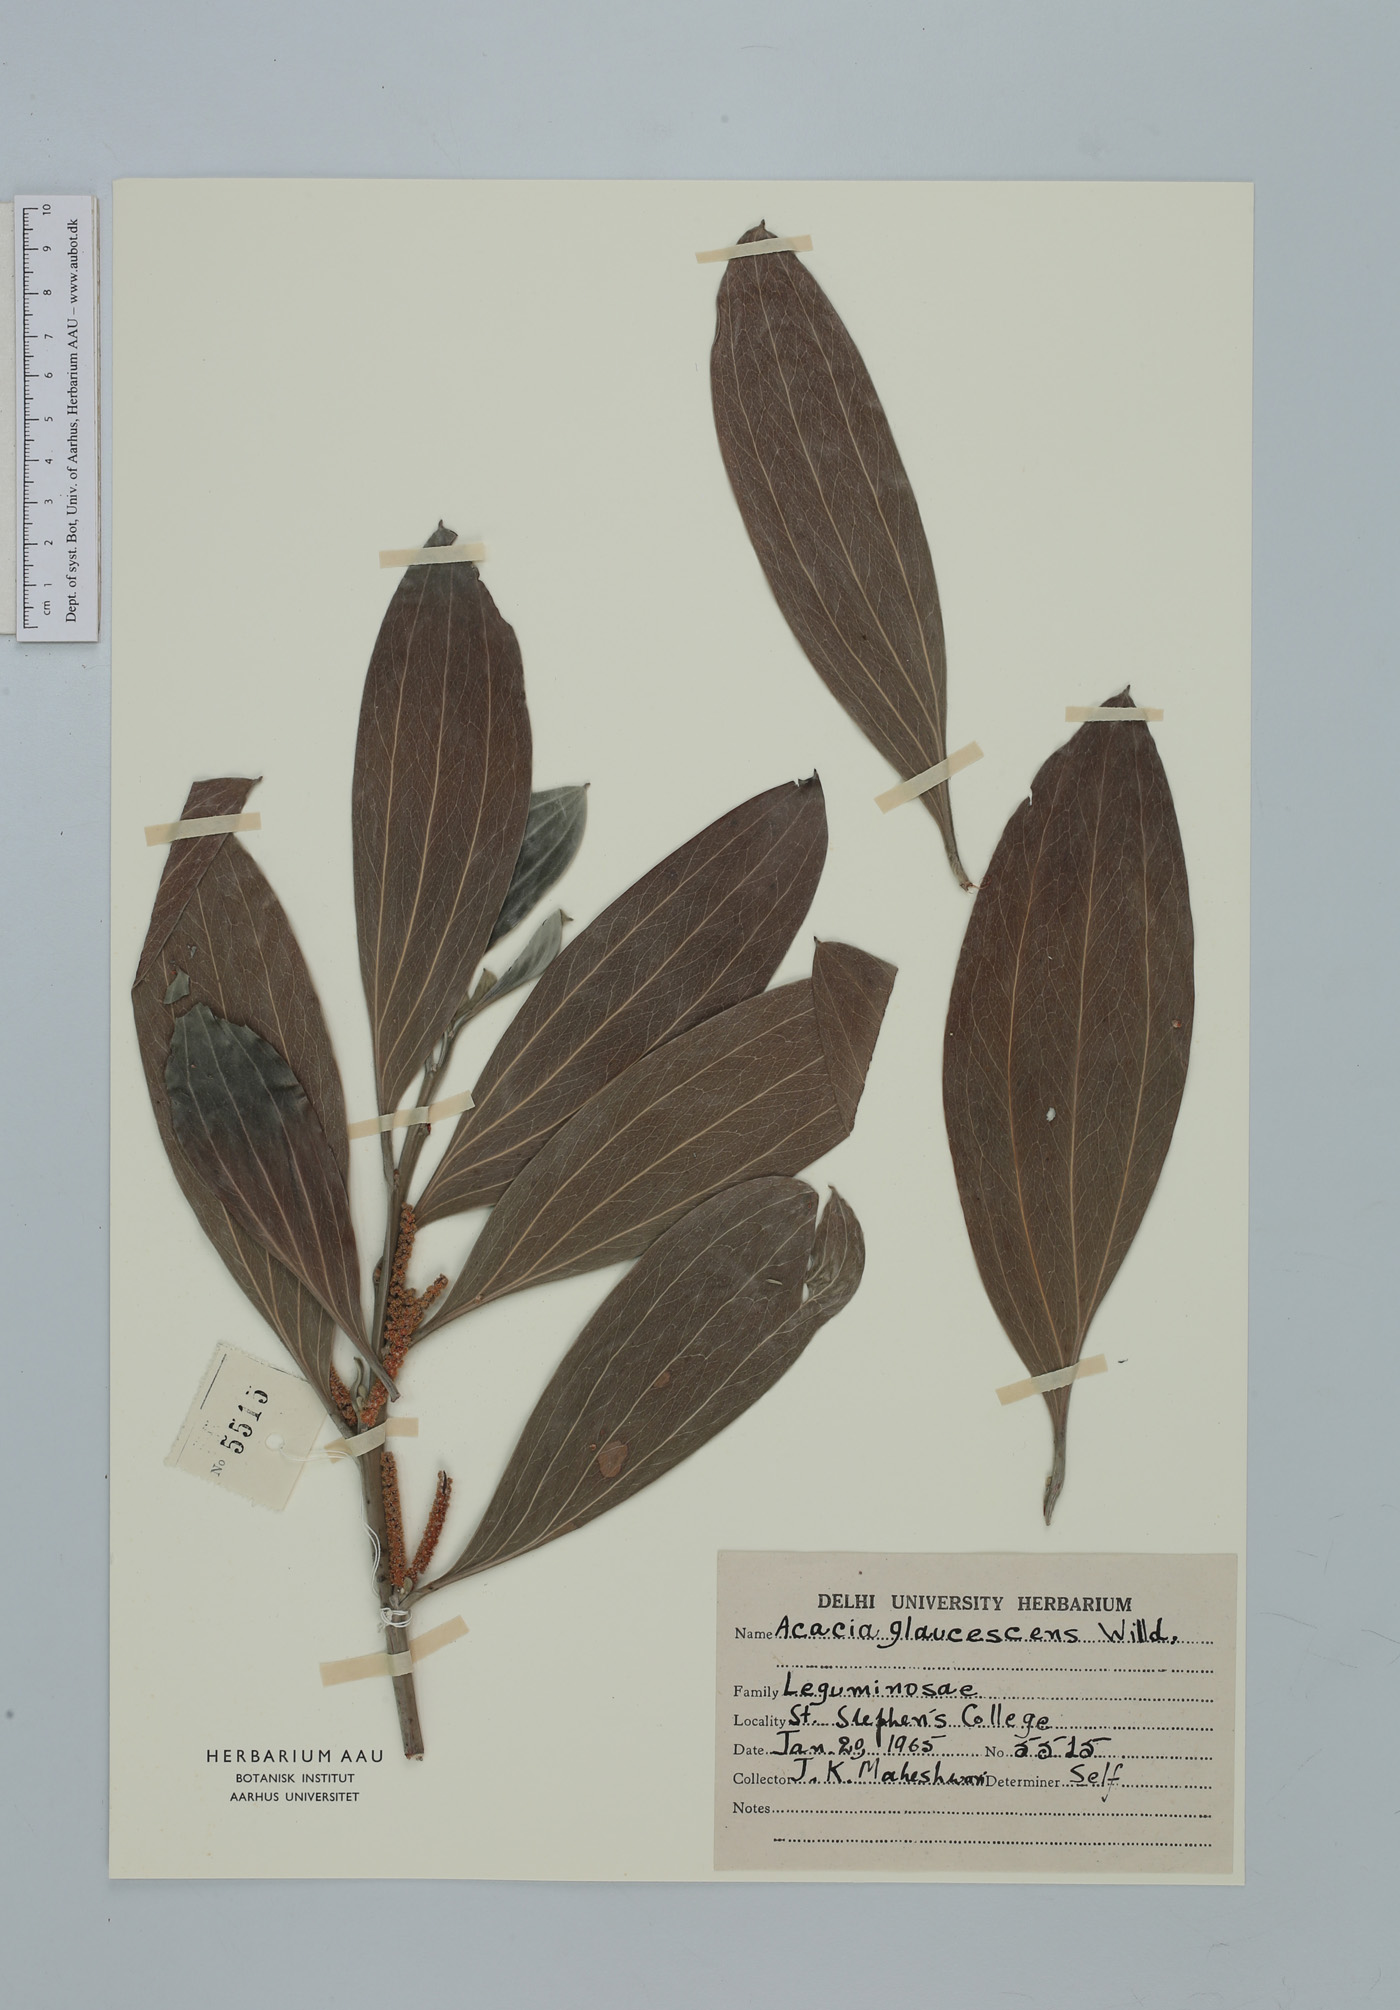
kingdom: Plantae
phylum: Tracheophyta
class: Magnoliopsida
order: Fabales
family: Fabaceae
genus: Acacia
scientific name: Acacia binervia
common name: Coast myall
